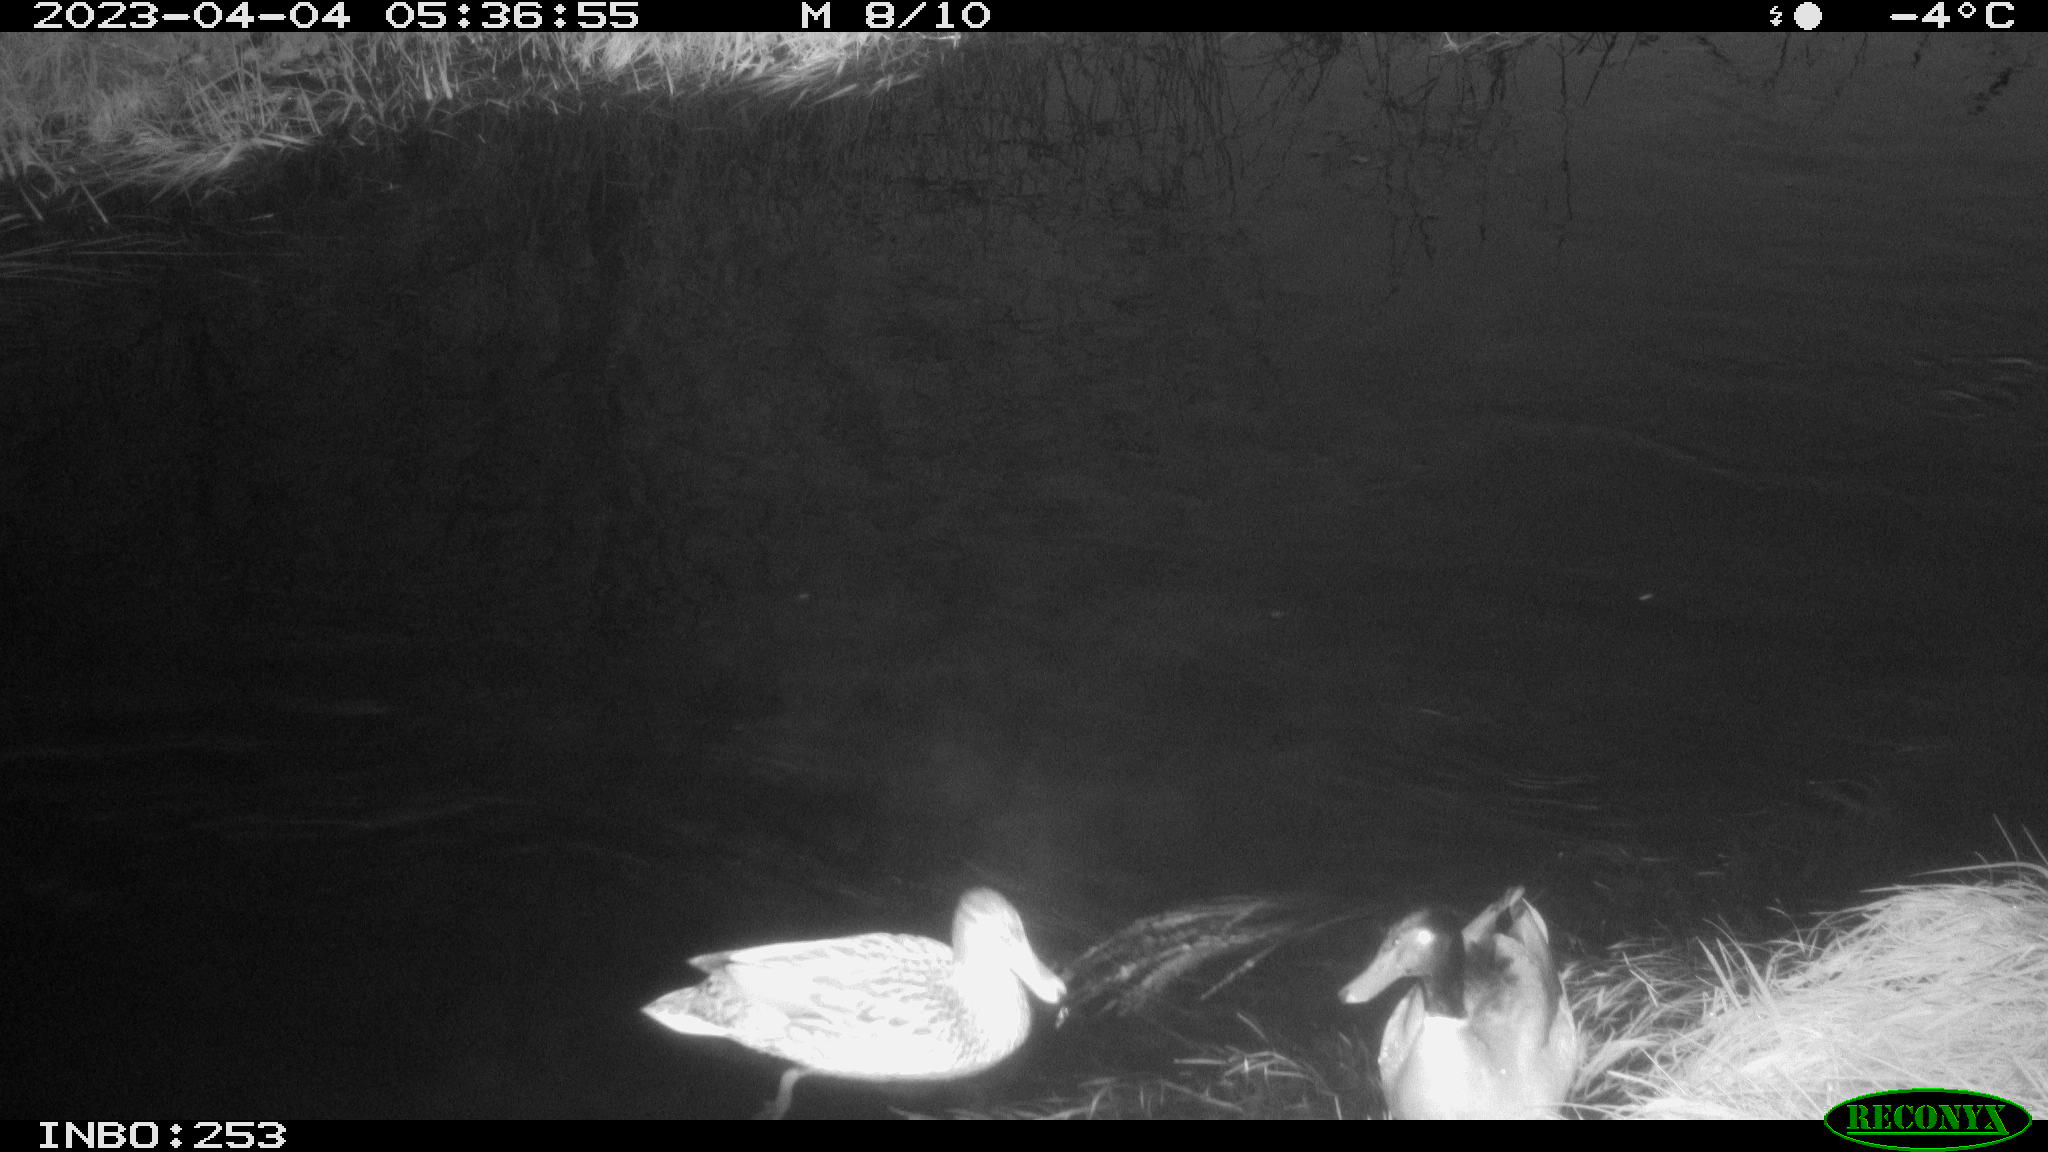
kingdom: Animalia
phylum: Chordata
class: Aves
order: Anseriformes
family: Anatidae
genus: Anas
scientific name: Anas
